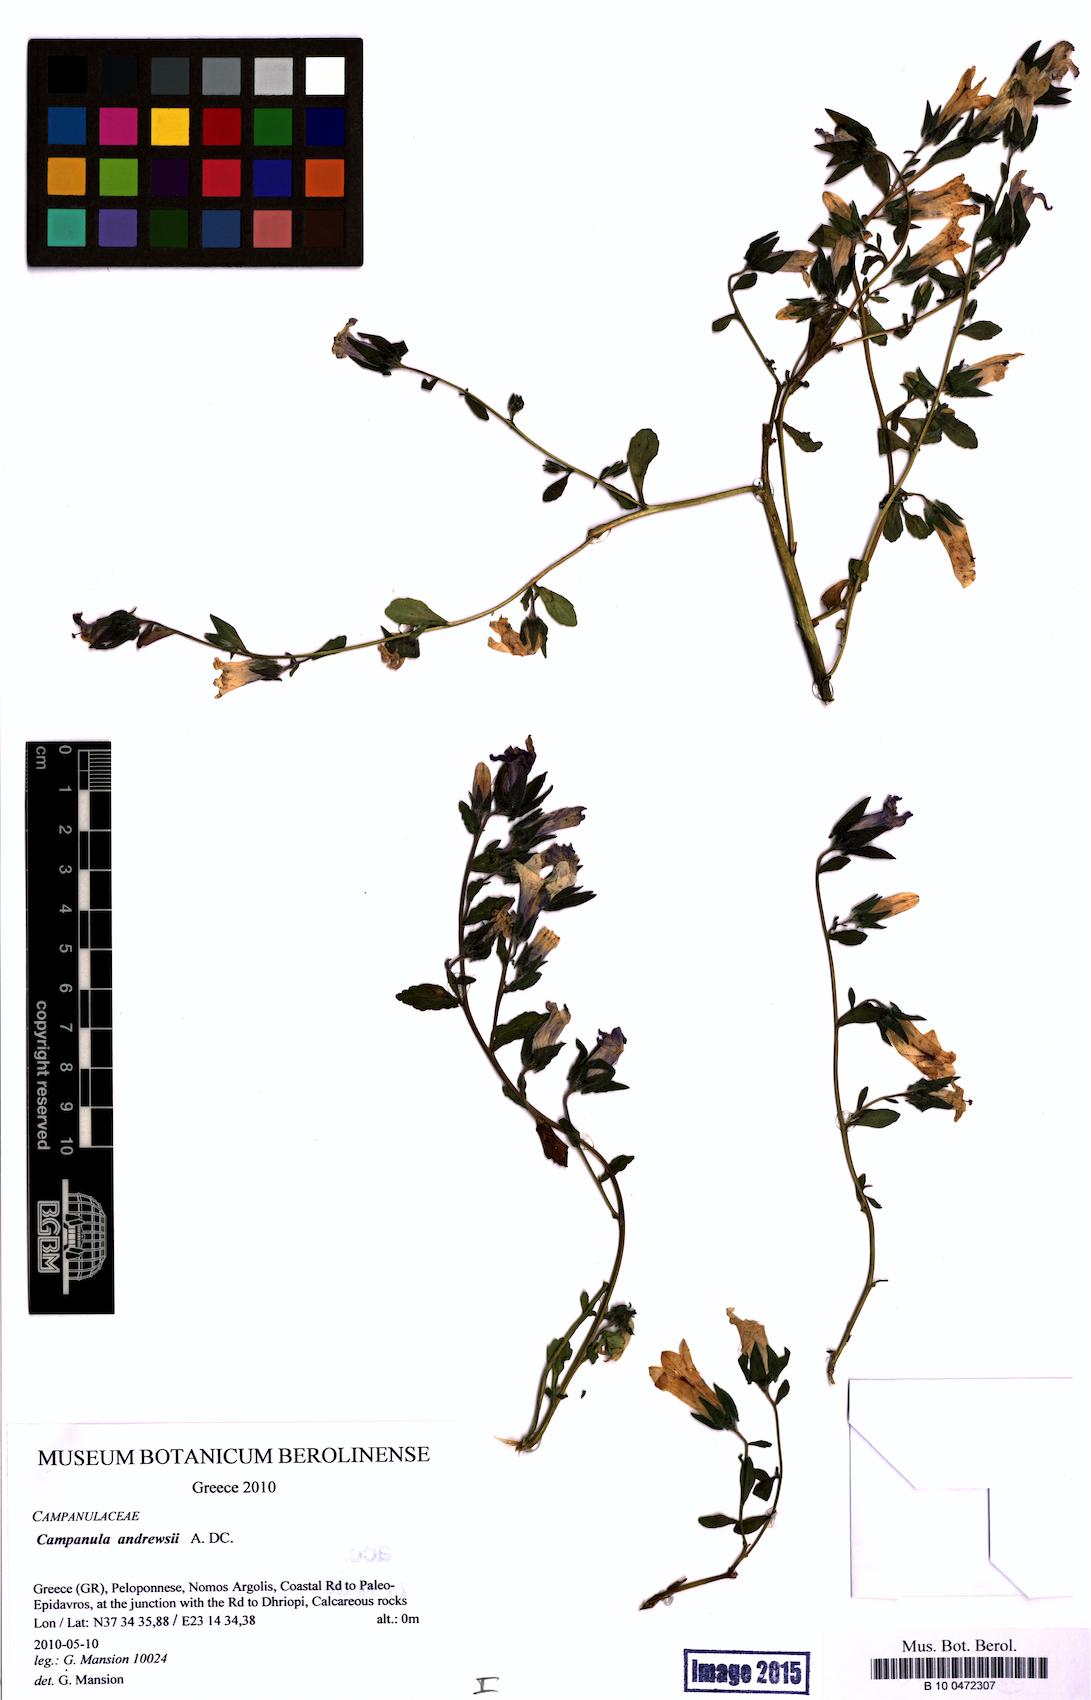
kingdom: Plantae
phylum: Tracheophyta
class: Magnoliopsida
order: Asterales
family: Campanulaceae
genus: Campanula
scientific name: Campanula andrewsii
